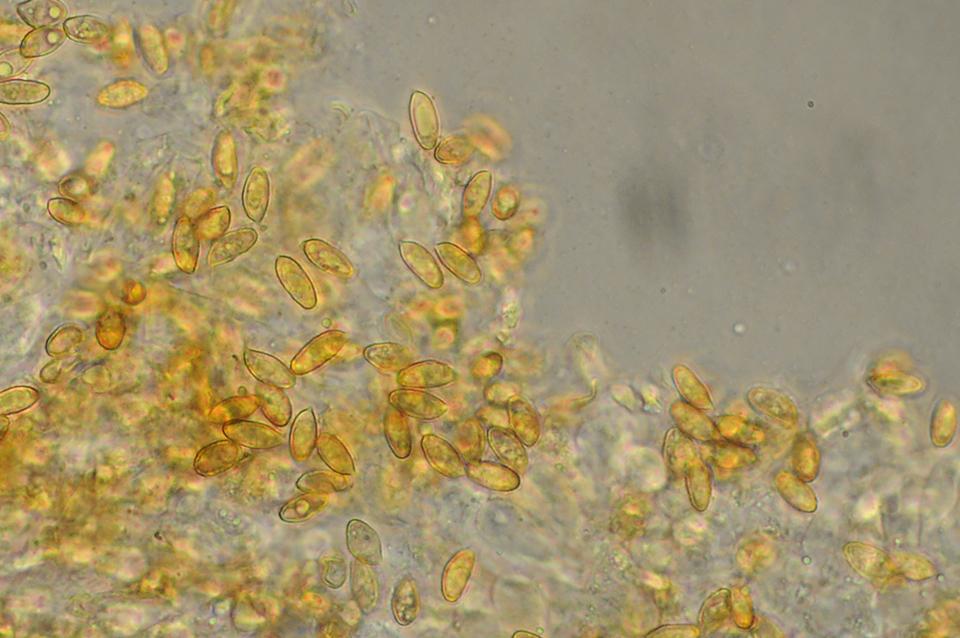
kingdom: Fungi
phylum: Basidiomycota
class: Agaricomycetes
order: Agaricales
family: Cortinariaceae
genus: Cortinarius
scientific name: Cortinarius fusisporus
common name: brunfnugget slørhat
